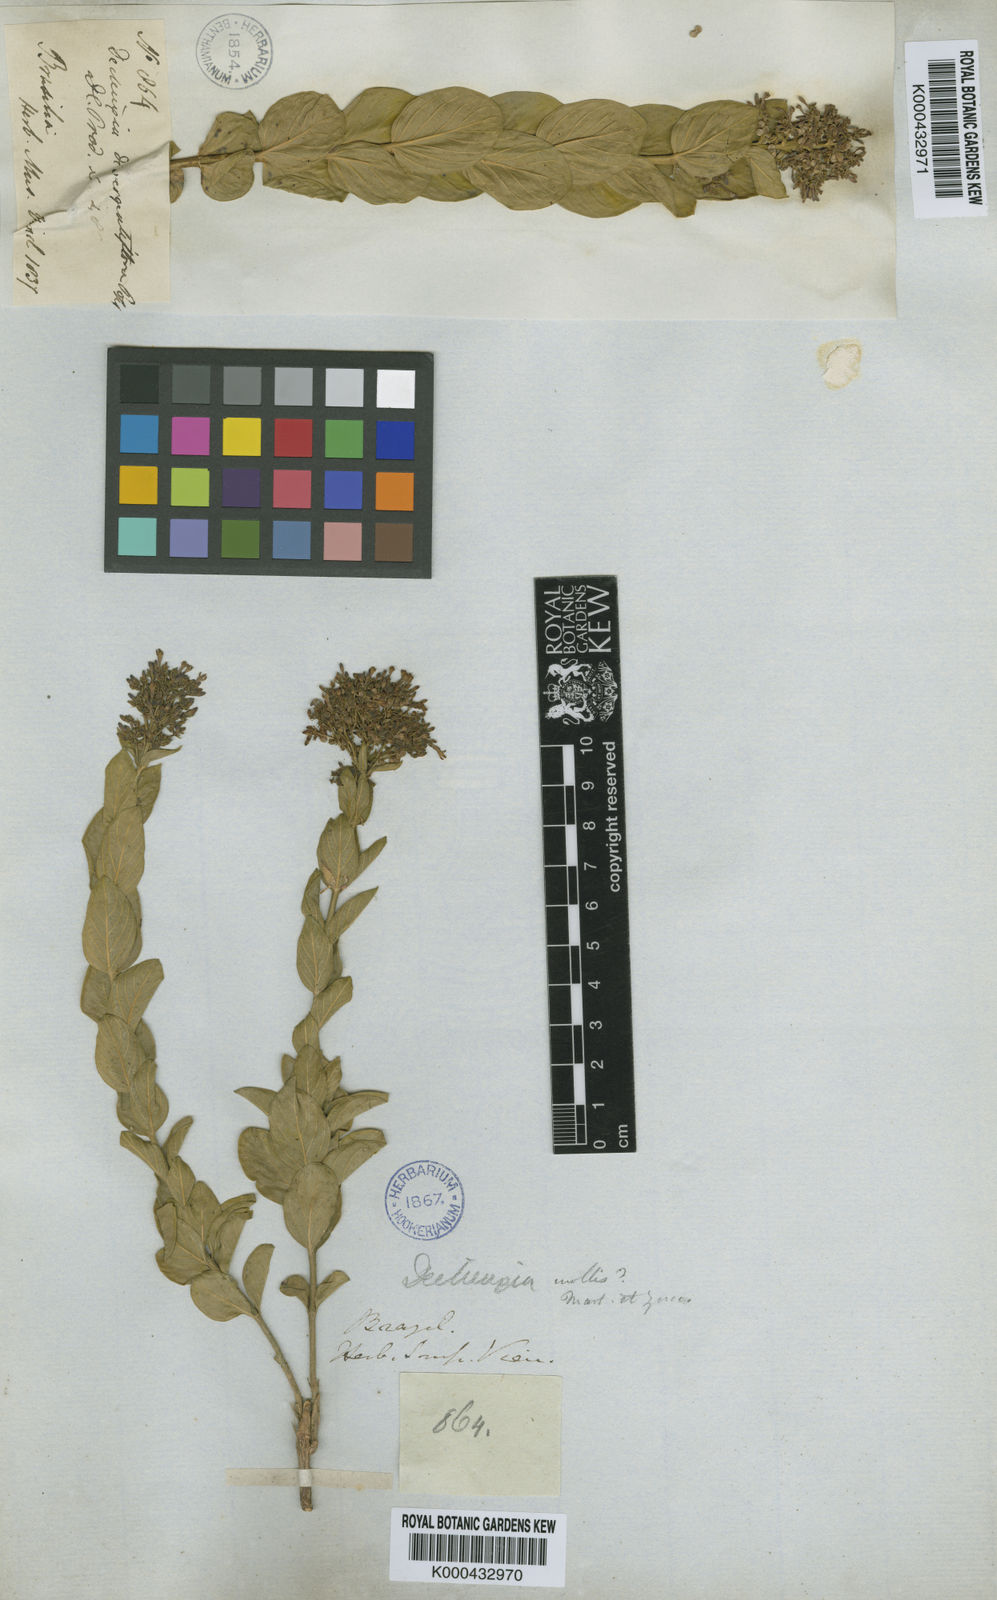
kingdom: Plantae
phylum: Tracheophyta
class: Magnoliopsida
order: Gentianales
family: Rubiaceae
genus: Declieuxia
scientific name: Declieuxia
